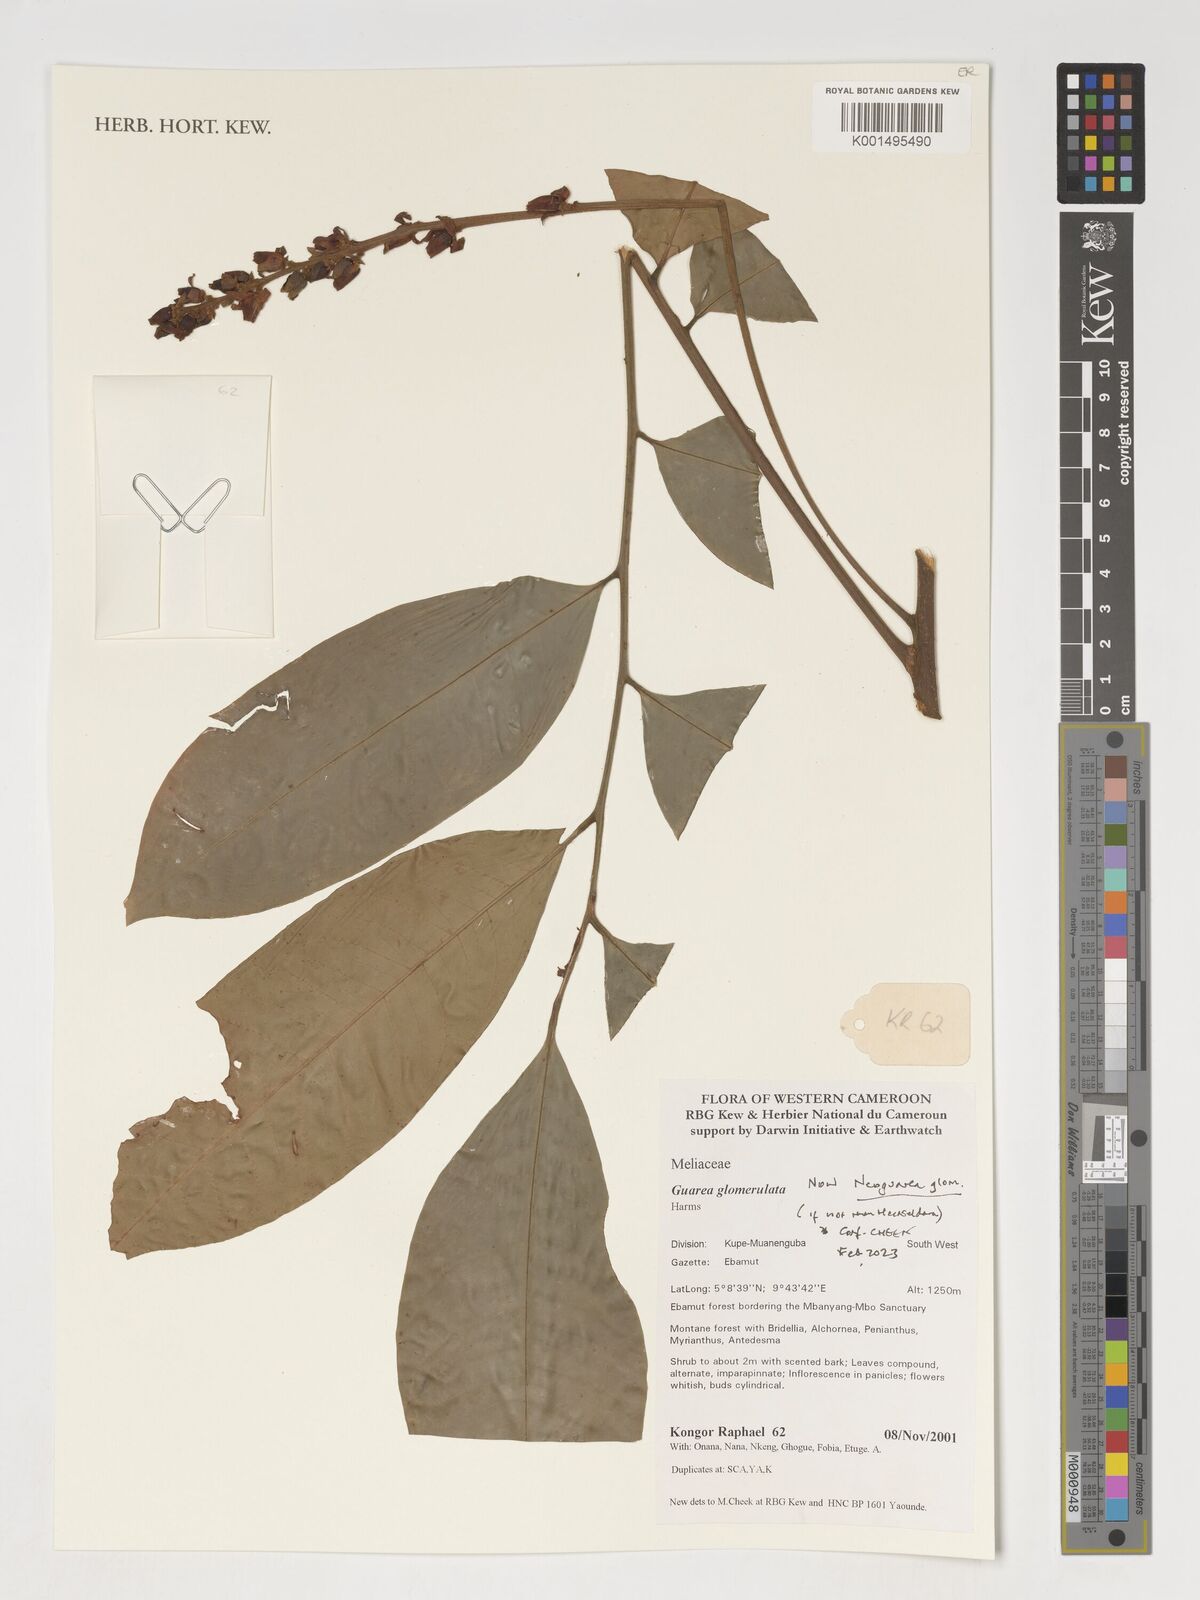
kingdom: Plantae
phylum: Tracheophyta
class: Magnoliopsida
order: Sapindales
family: Meliaceae
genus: Neoguarea
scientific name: Neoguarea glomerulata
